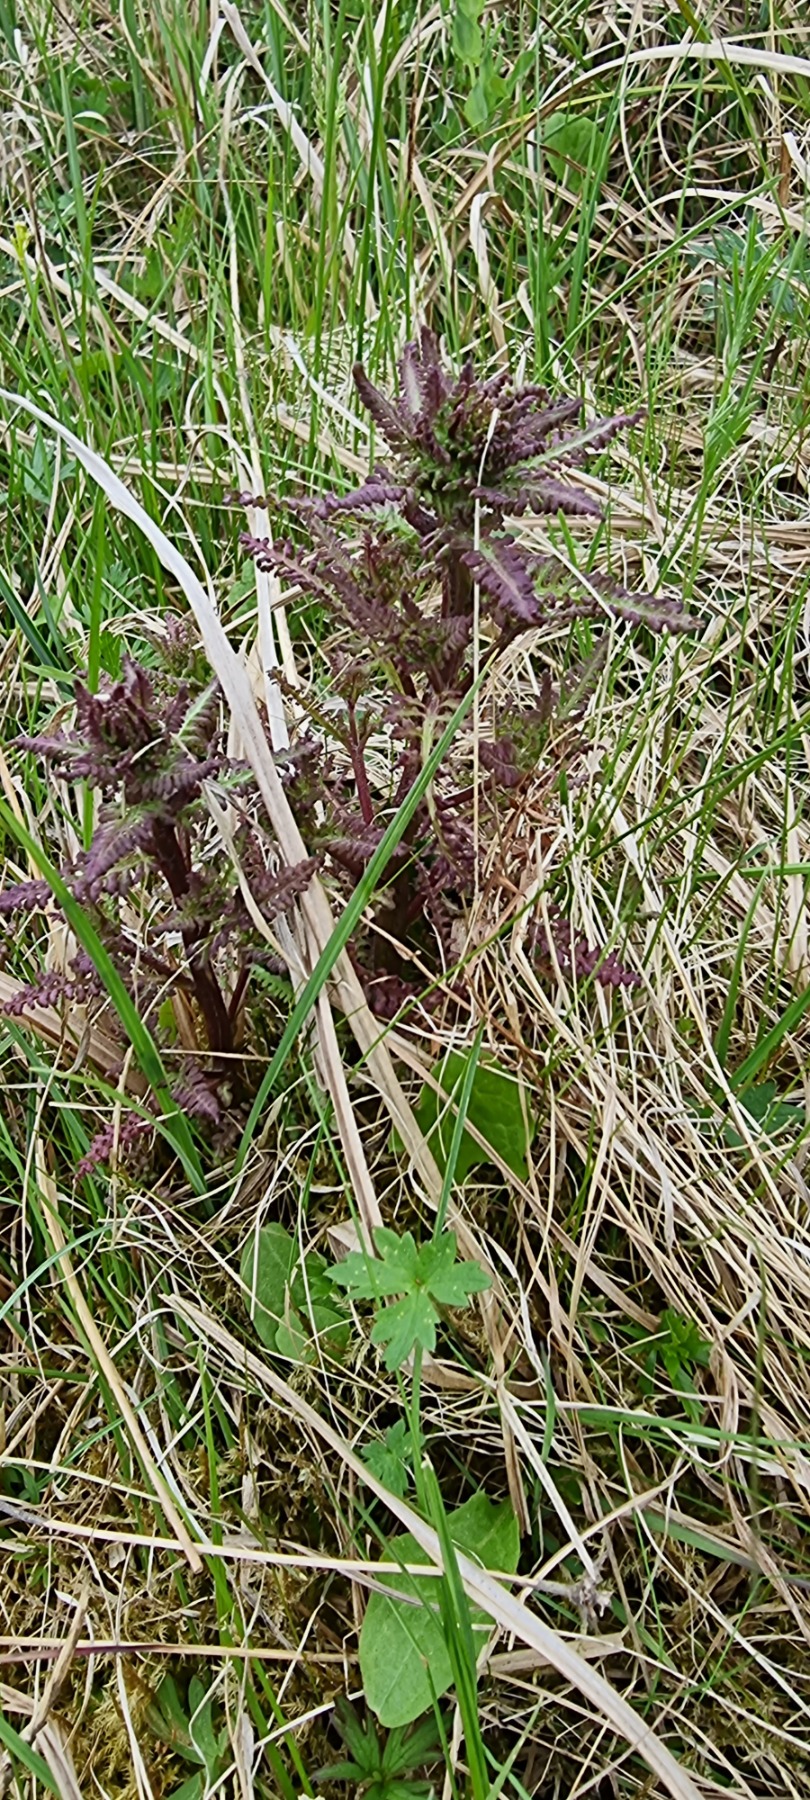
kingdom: Plantae
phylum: Tracheophyta
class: Magnoliopsida
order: Lamiales
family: Orobanchaceae
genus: Pedicularis
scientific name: Pedicularis palustris
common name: Eng-troldurt
